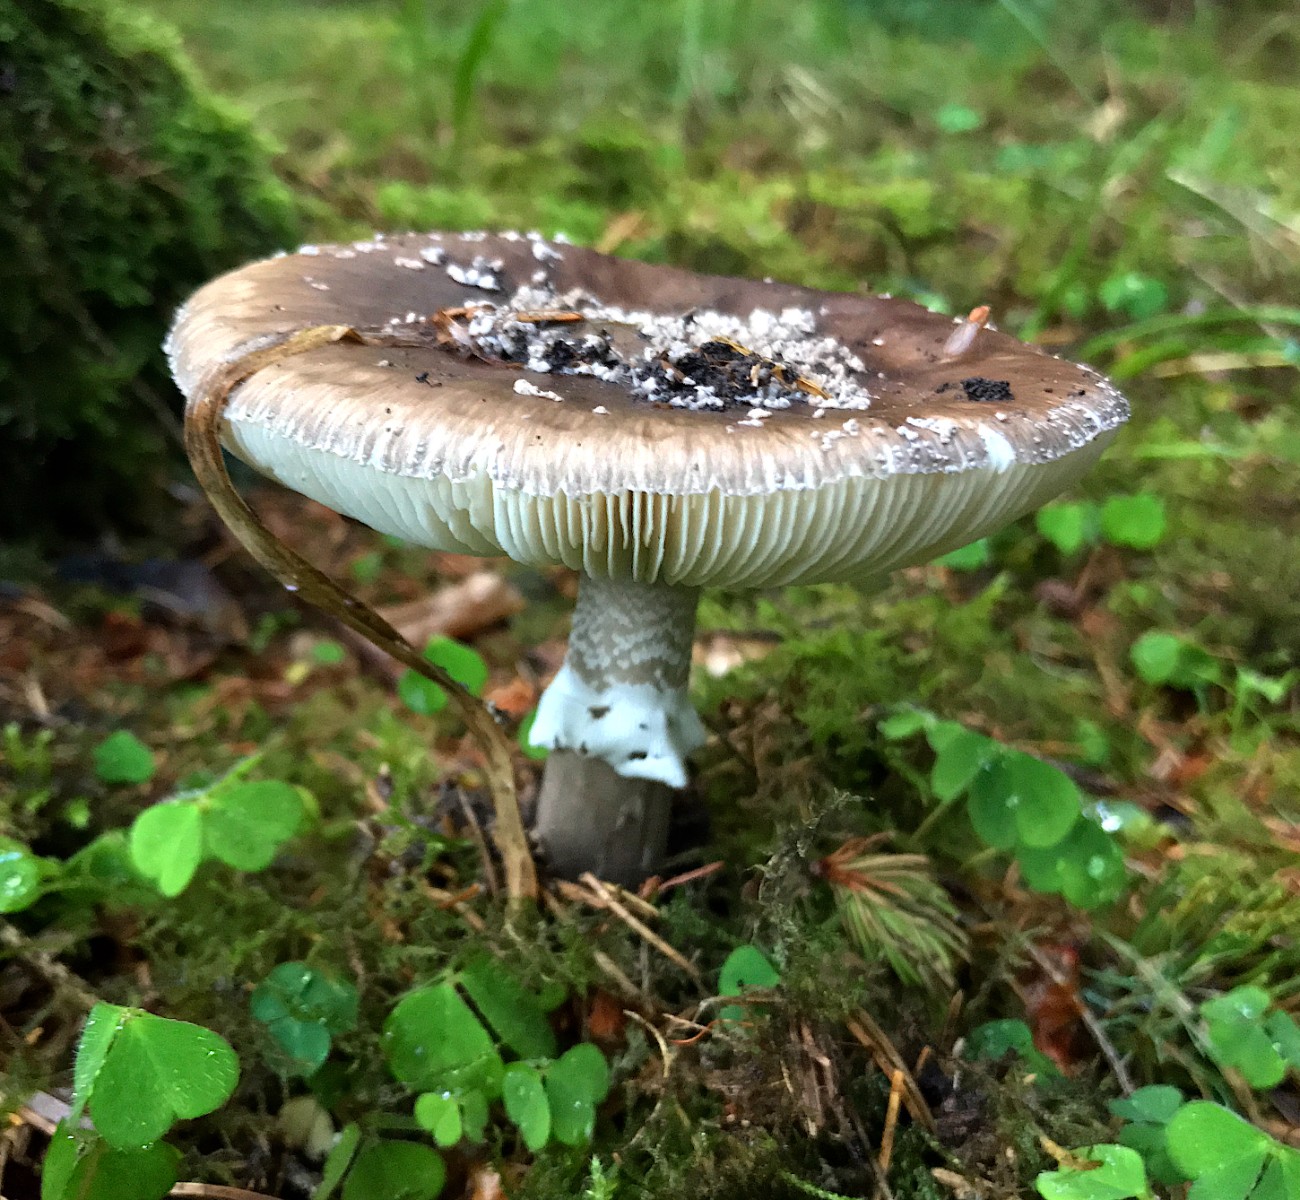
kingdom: Fungi
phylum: Basidiomycota
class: Agaricomycetes
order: Agaricales
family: Amanitaceae
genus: Amanita
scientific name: Amanita pantherina
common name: panter-fluesvamp
